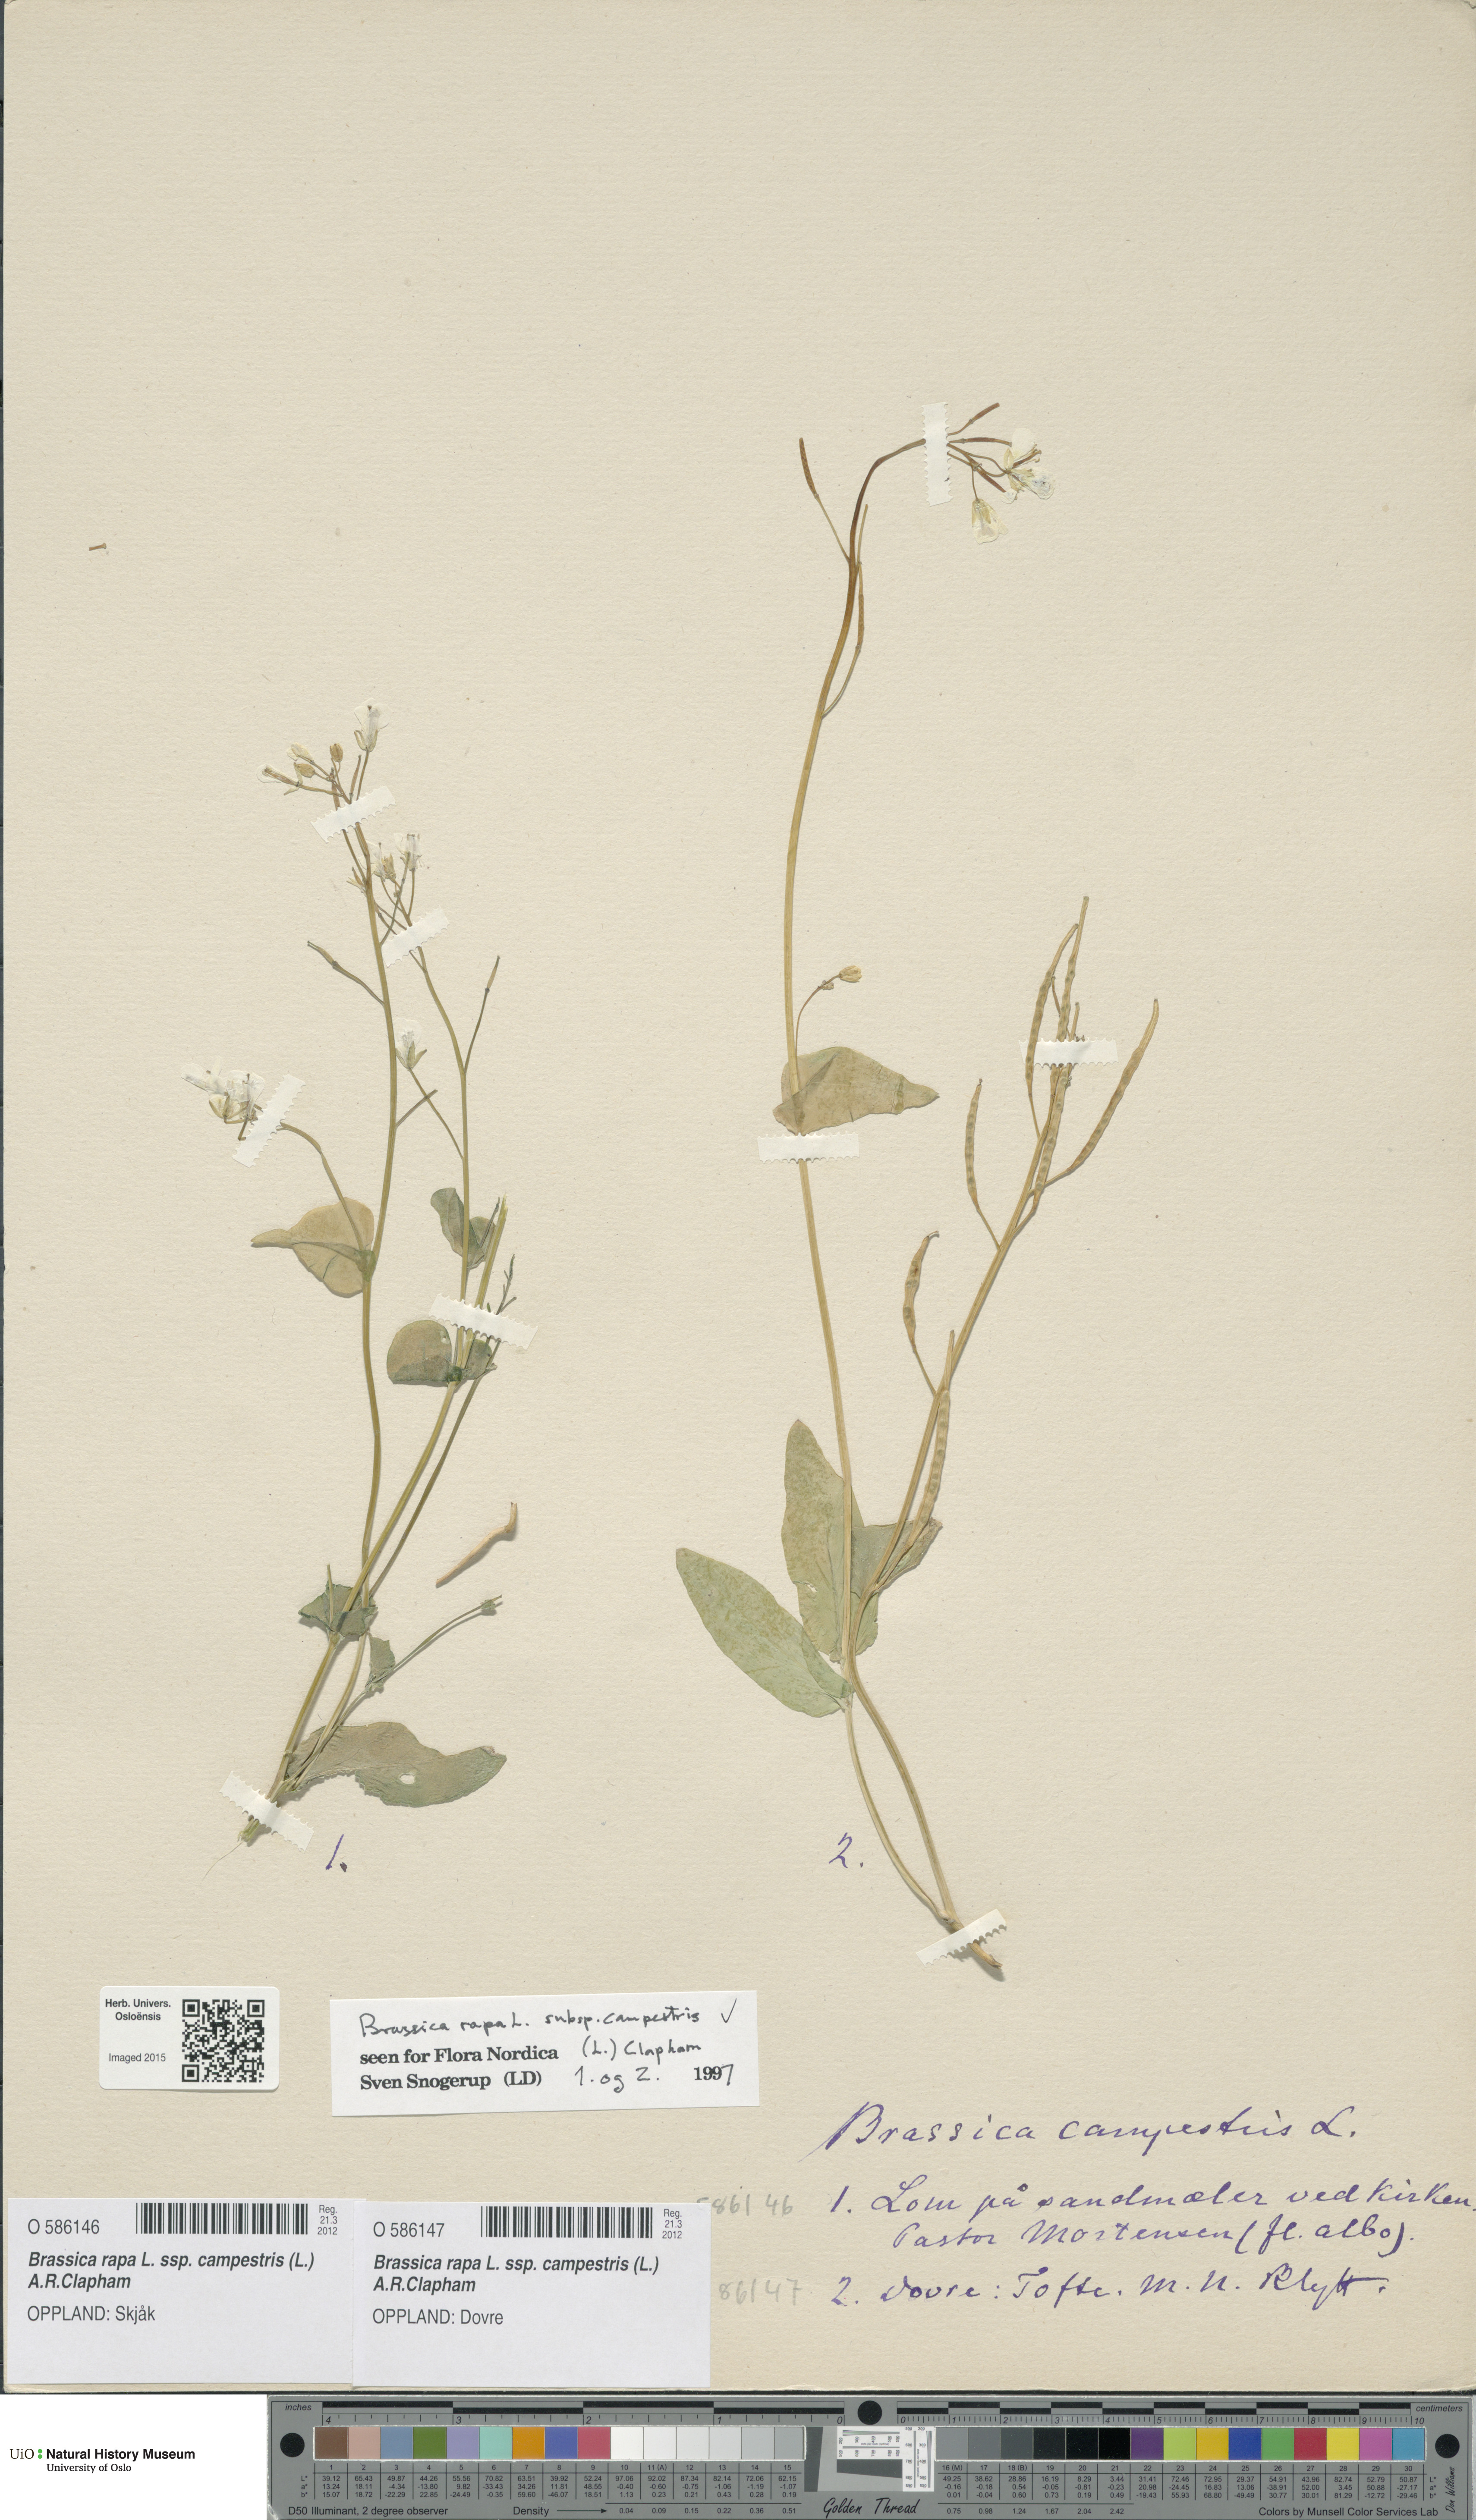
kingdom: Plantae
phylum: Tracheophyta
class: Magnoliopsida
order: Brassicales
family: Brassicaceae
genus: Brassica
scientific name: Brassica rapa
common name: Field mustard
